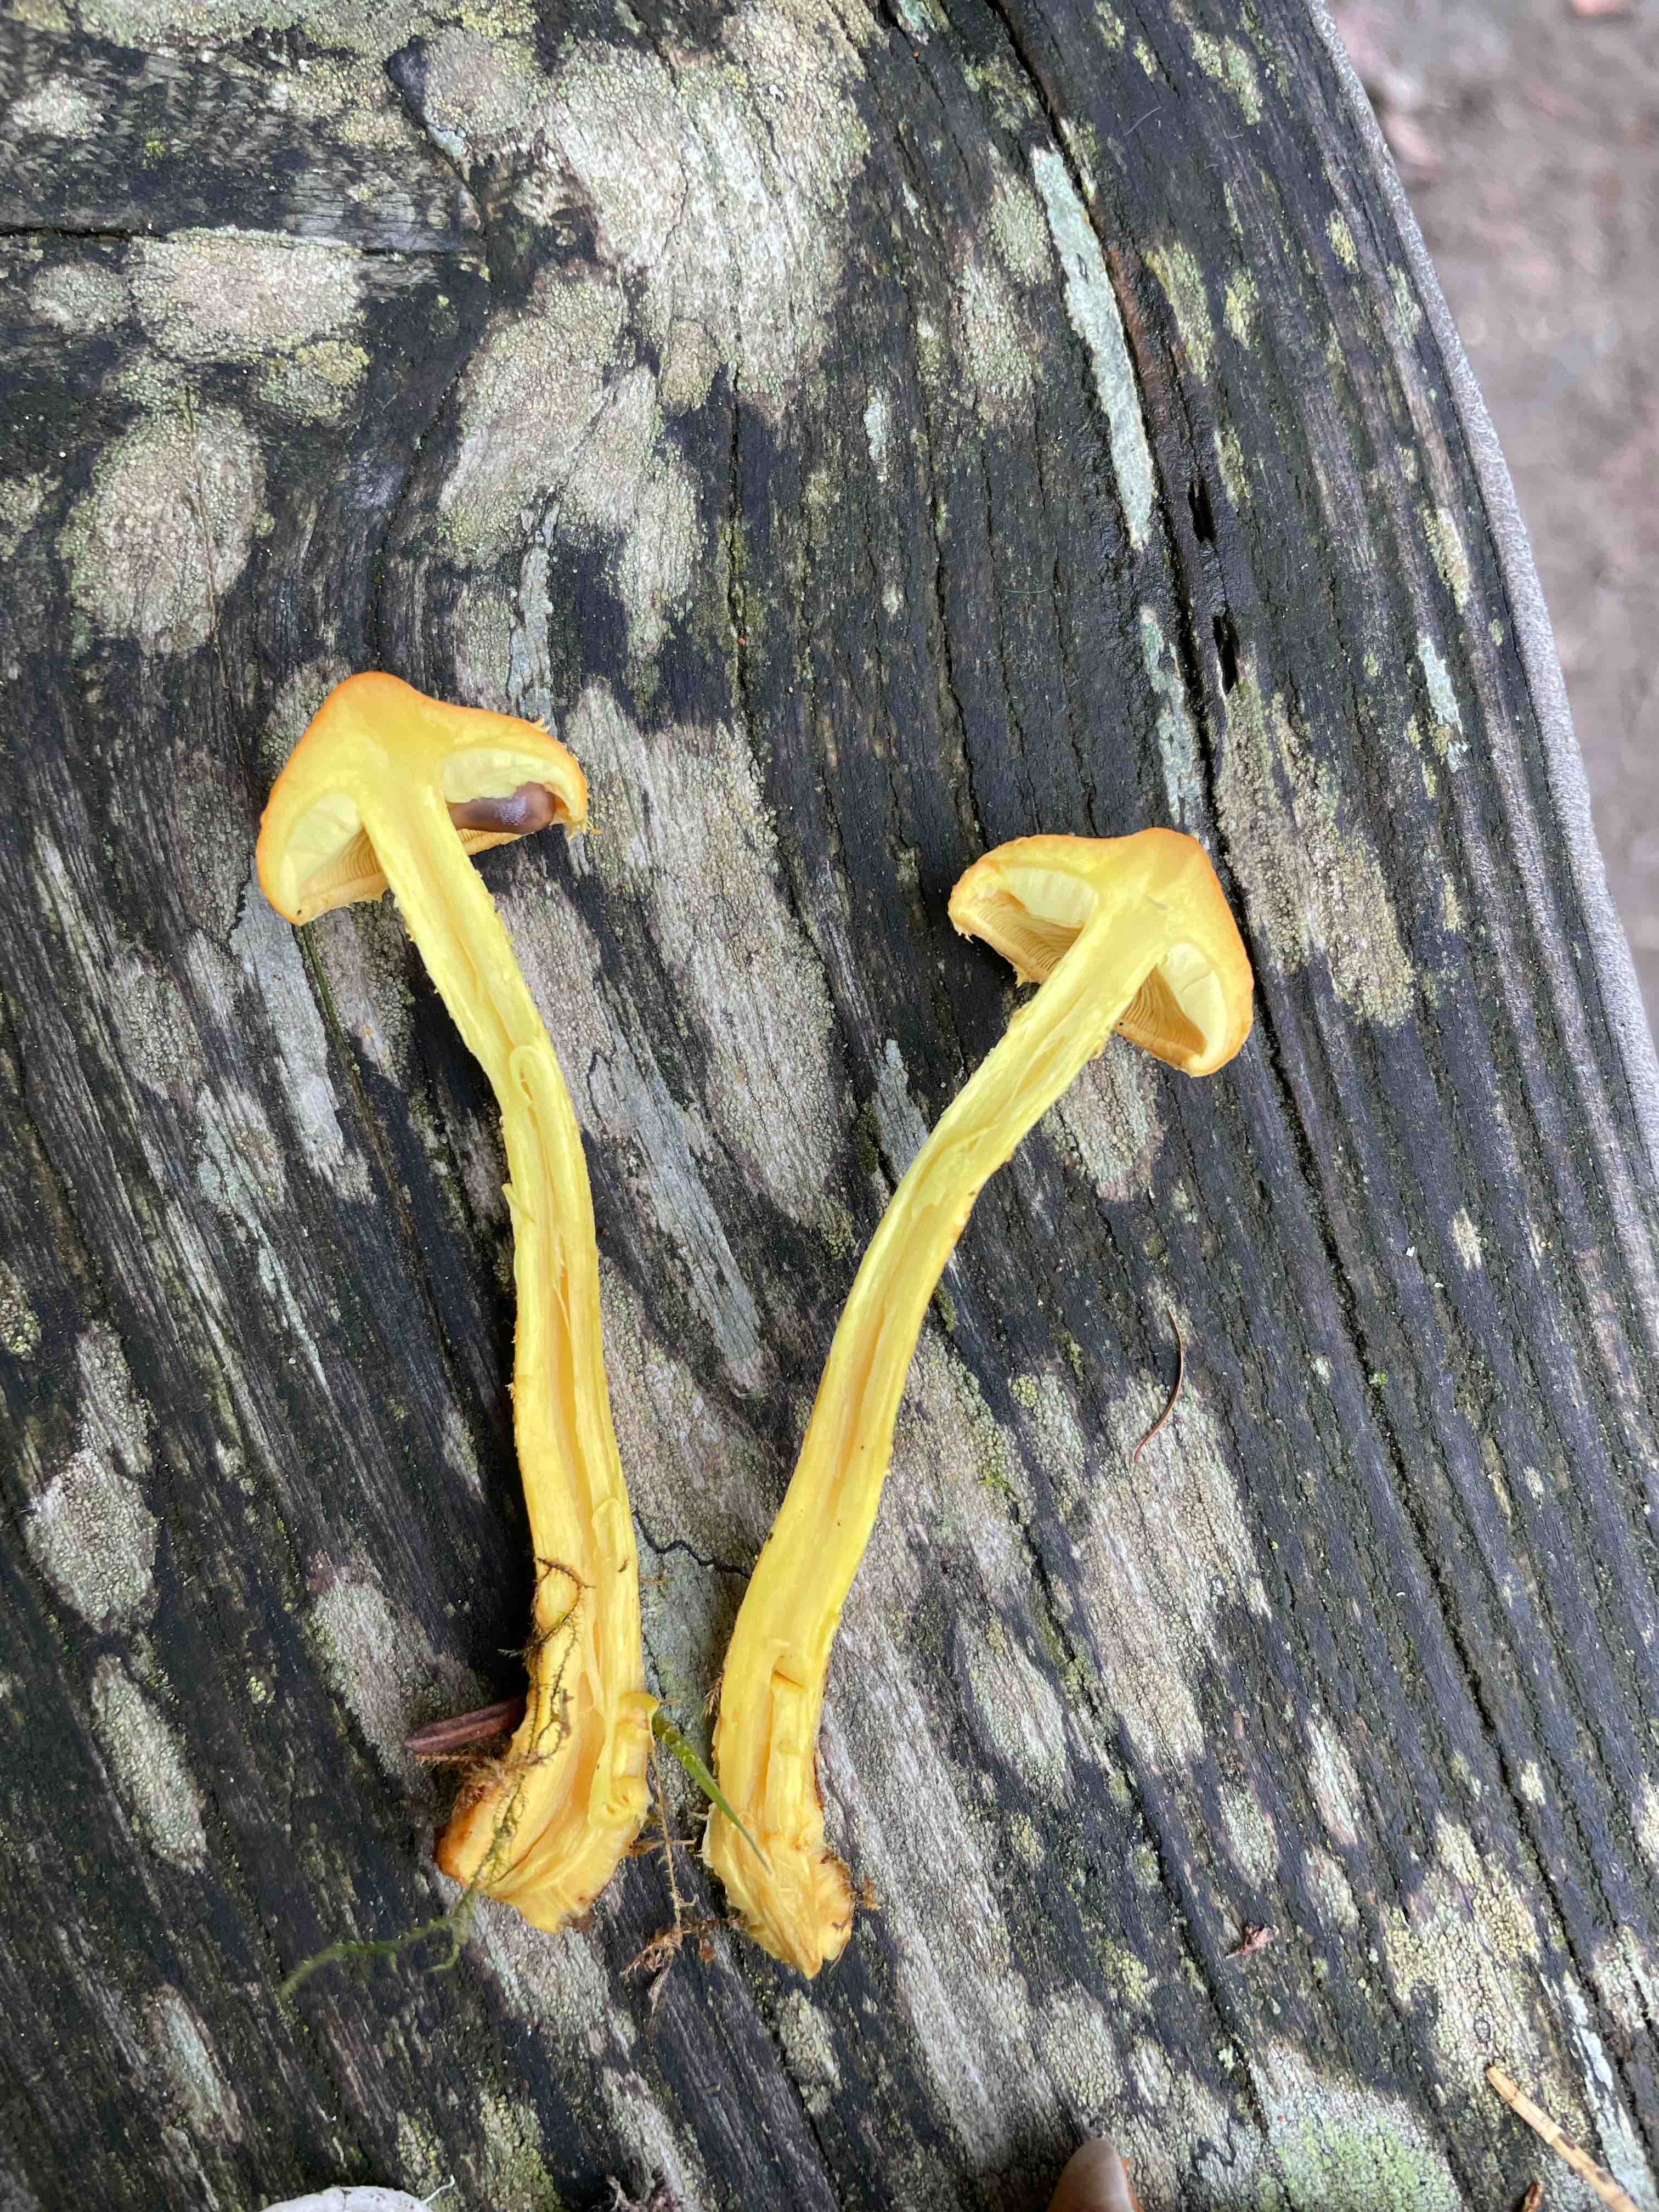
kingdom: Fungi
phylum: Basidiomycota
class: Agaricomycetes
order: Agaricales
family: Strophariaceae
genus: Pholiota
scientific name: Pholiota flammans
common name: flamme-skælhat
